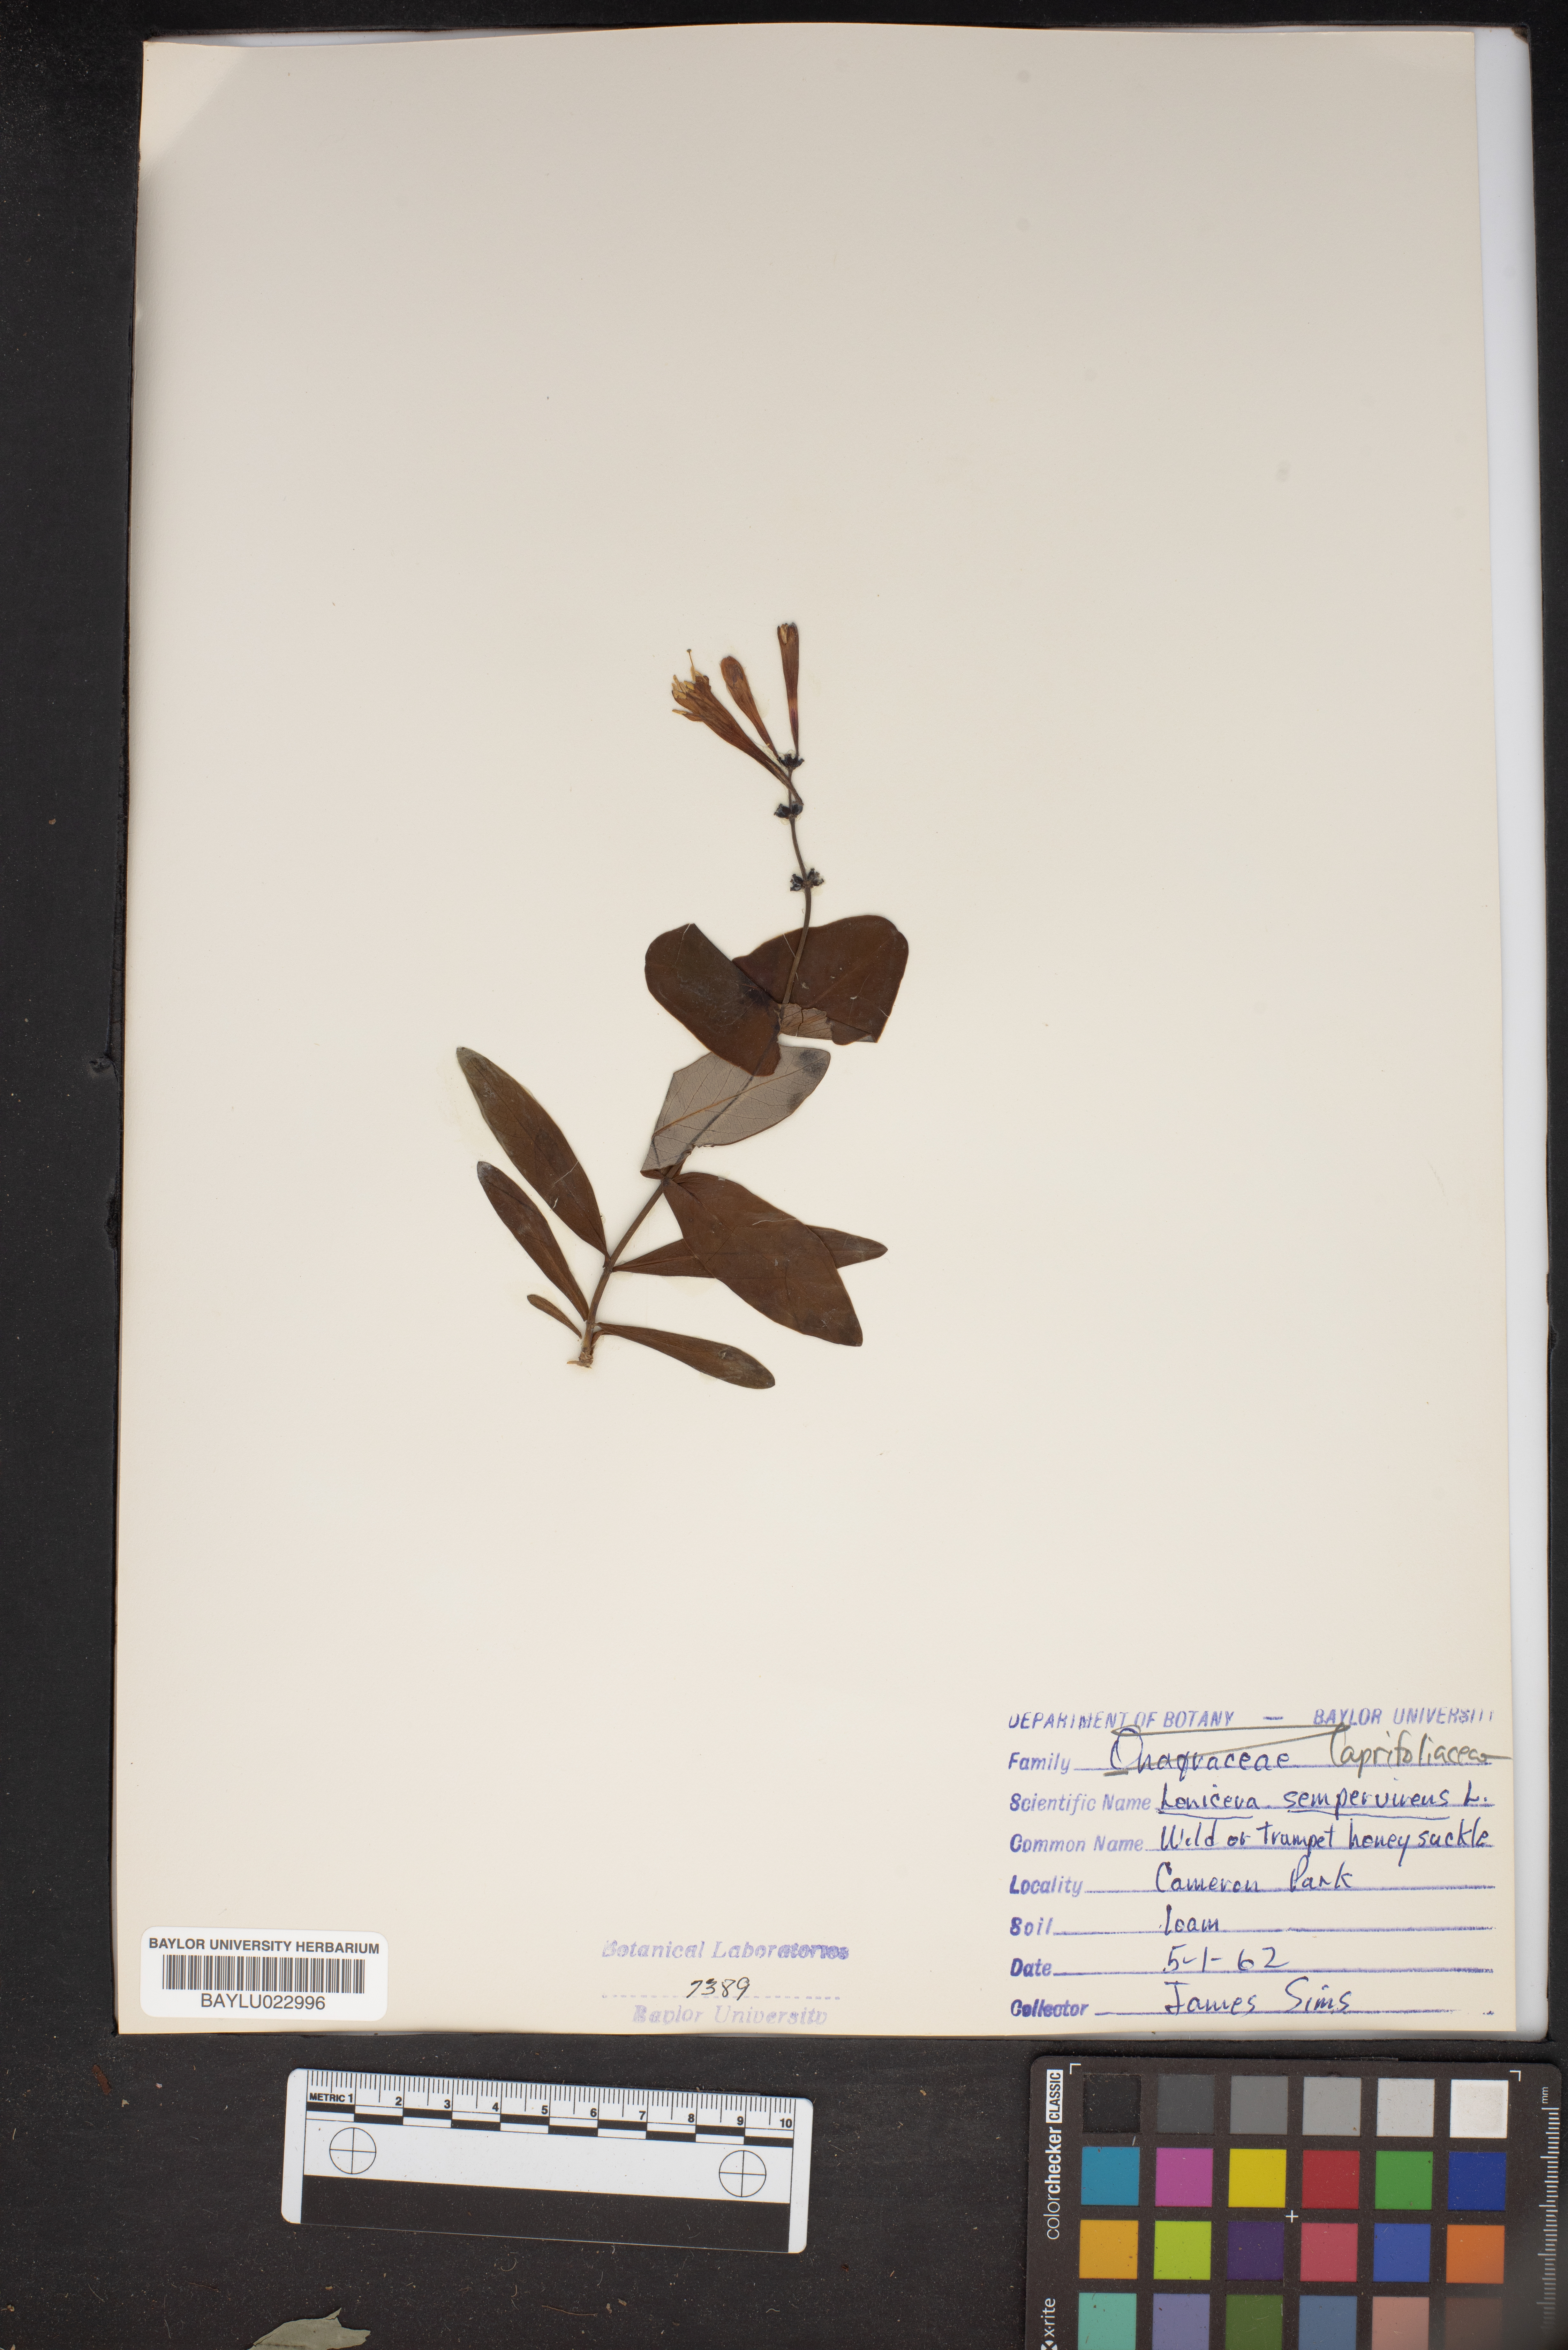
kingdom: Plantae
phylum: Tracheophyta
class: Magnoliopsida
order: Dipsacales
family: Caprifoliaceae
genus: Lonicera
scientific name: Lonicera sempervirens
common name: Coral honeysuckle
